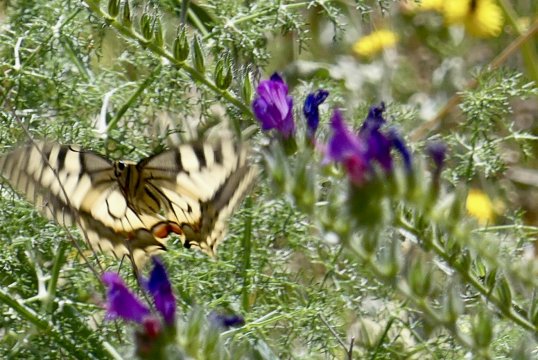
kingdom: Animalia
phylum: Arthropoda
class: Insecta
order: Lepidoptera
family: Papilionidae
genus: Papilio
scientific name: Papilio machaon
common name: Old World Swallowtail
